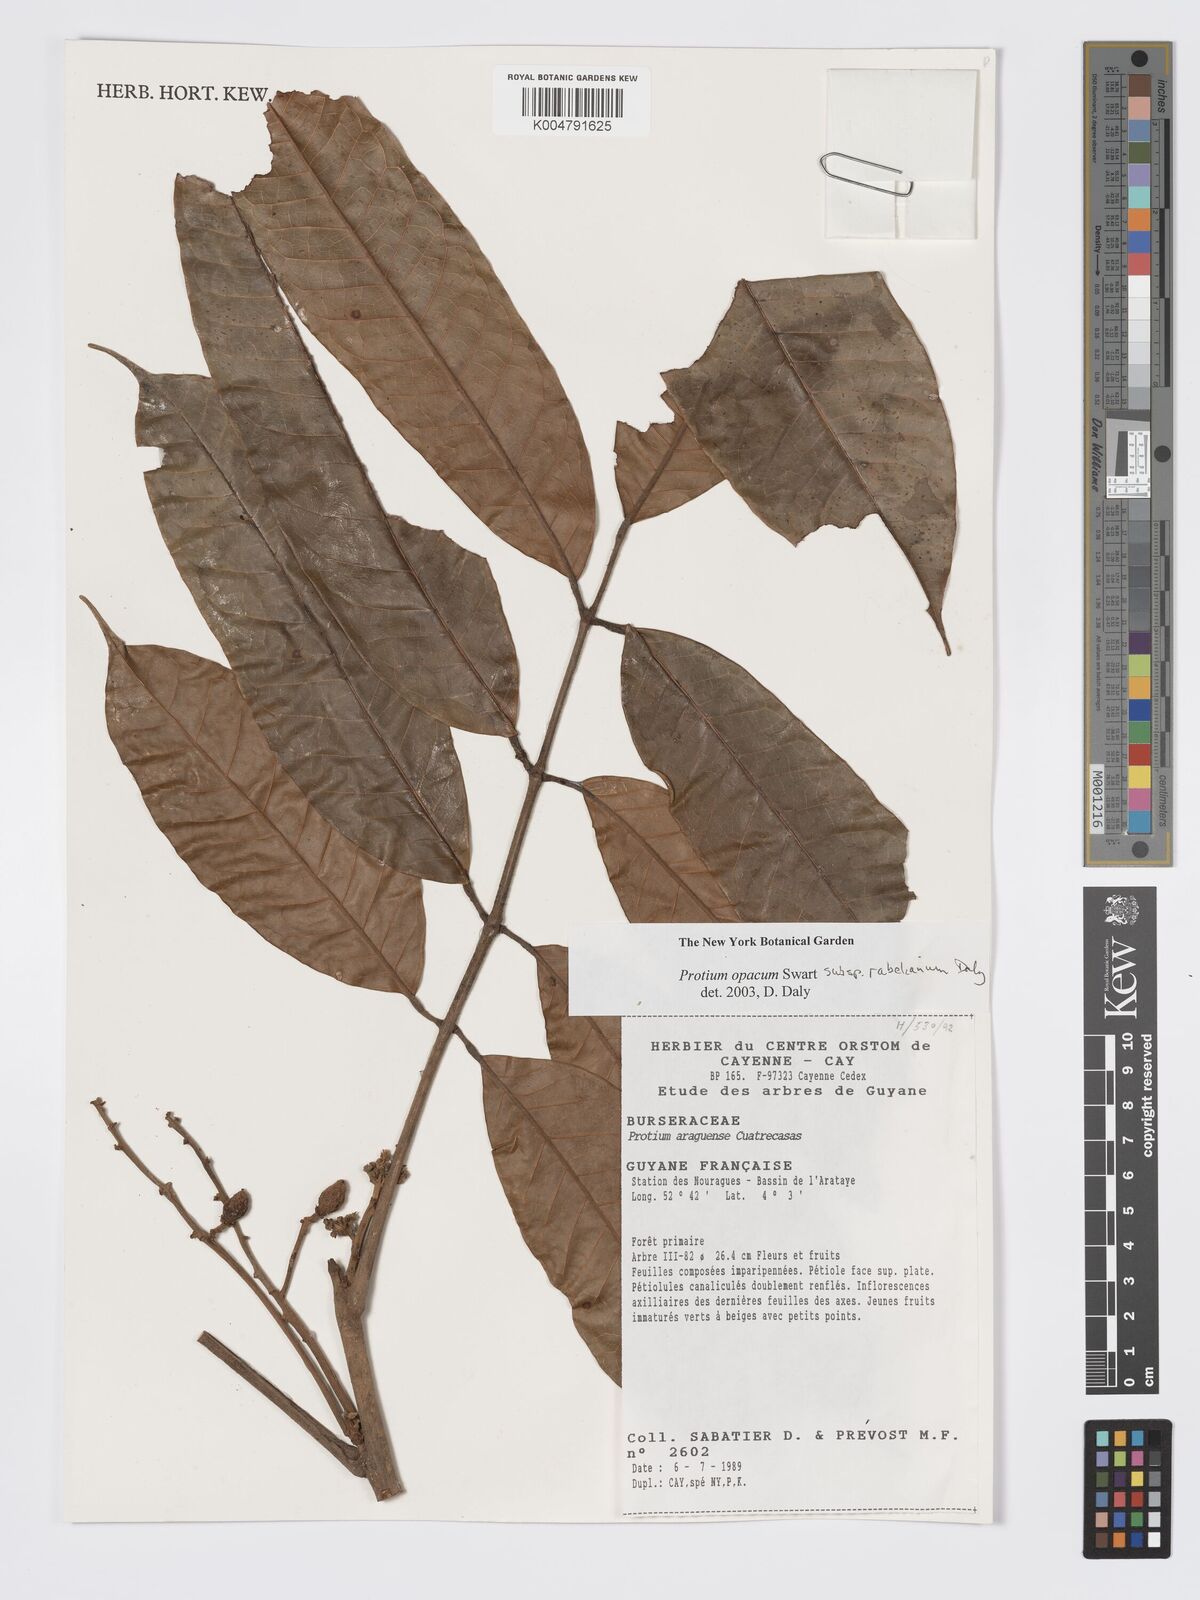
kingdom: Plantae
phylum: Tracheophyta
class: Magnoliopsida
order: Sapindales
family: Burseraceae
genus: Protium
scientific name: Protium opacum
